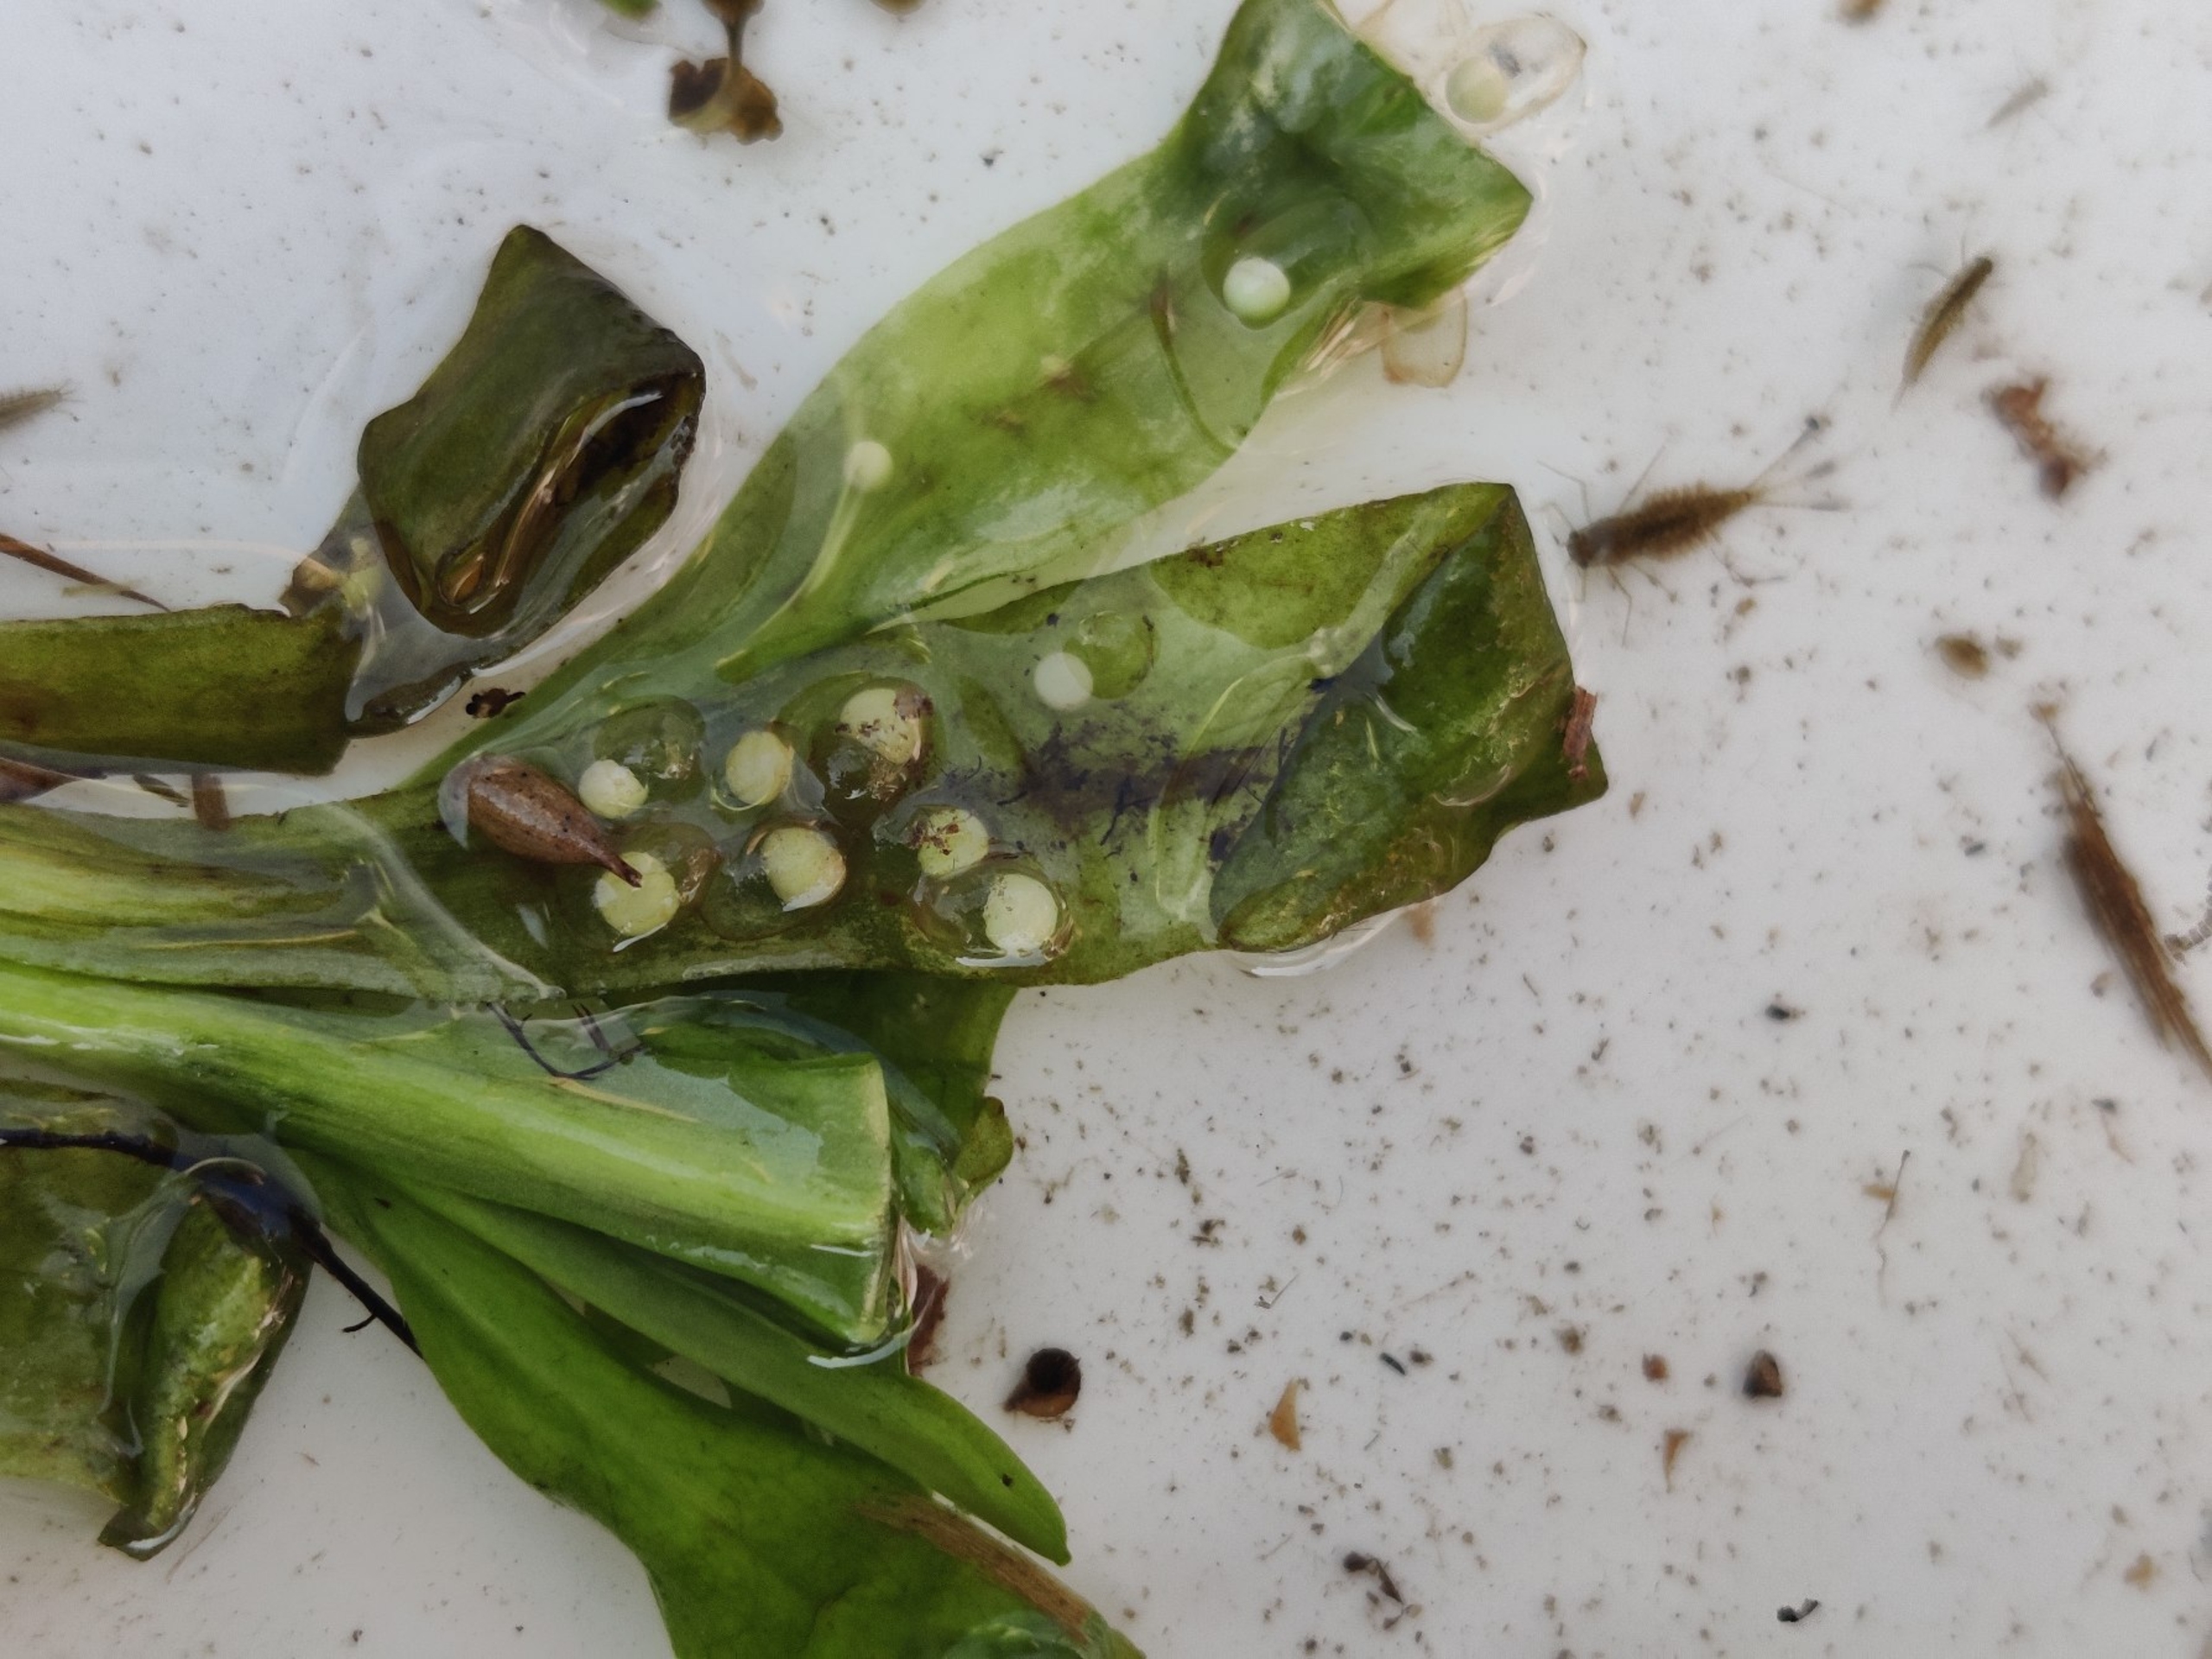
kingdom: Animalia
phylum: Chordata
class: Amphibia
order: Caudata
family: Salamandridae
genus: Triturus
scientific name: Triturus cristatus
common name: Stor vandsalamander
